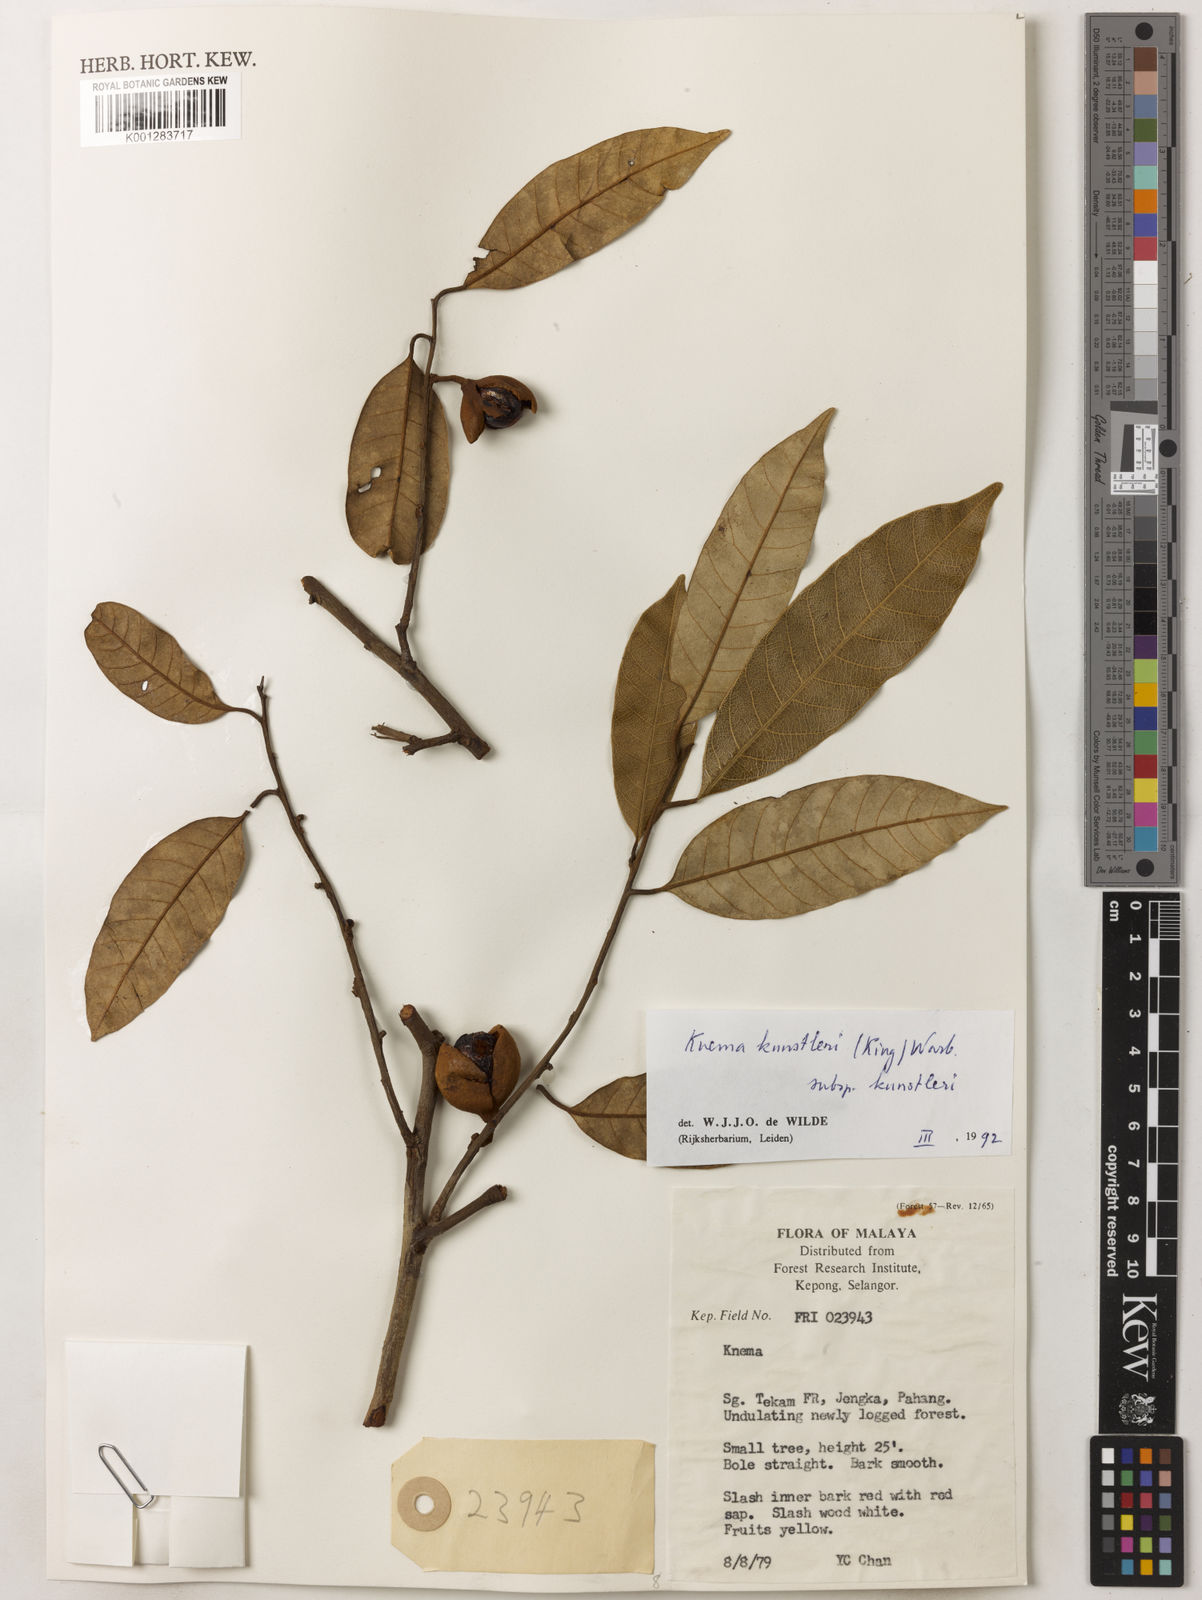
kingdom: Plantae
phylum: Tracheophyta
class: Magnoliopsida
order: Magnoliales
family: Myristicaceae
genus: Knema
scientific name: Knema kunstleri
